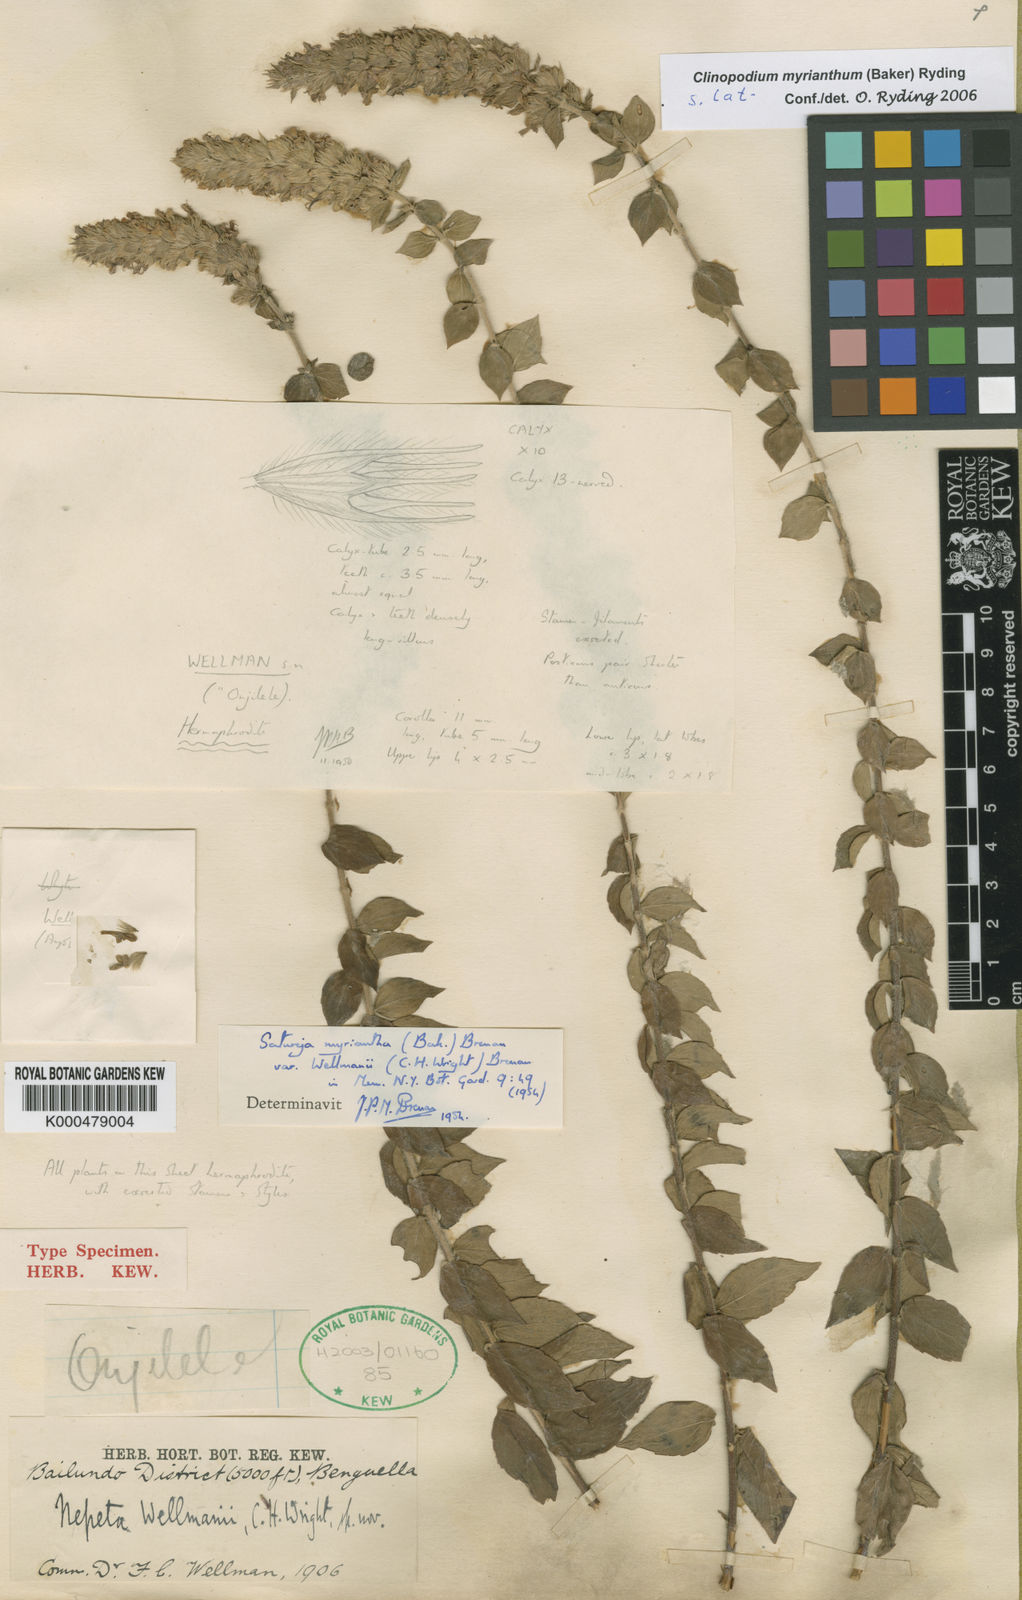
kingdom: Plantae
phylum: Tracheophyta
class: Magnoliopsida
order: Lamiales
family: Lamiaceae
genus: Clinopodium
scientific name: Clinopodium myrianthum
